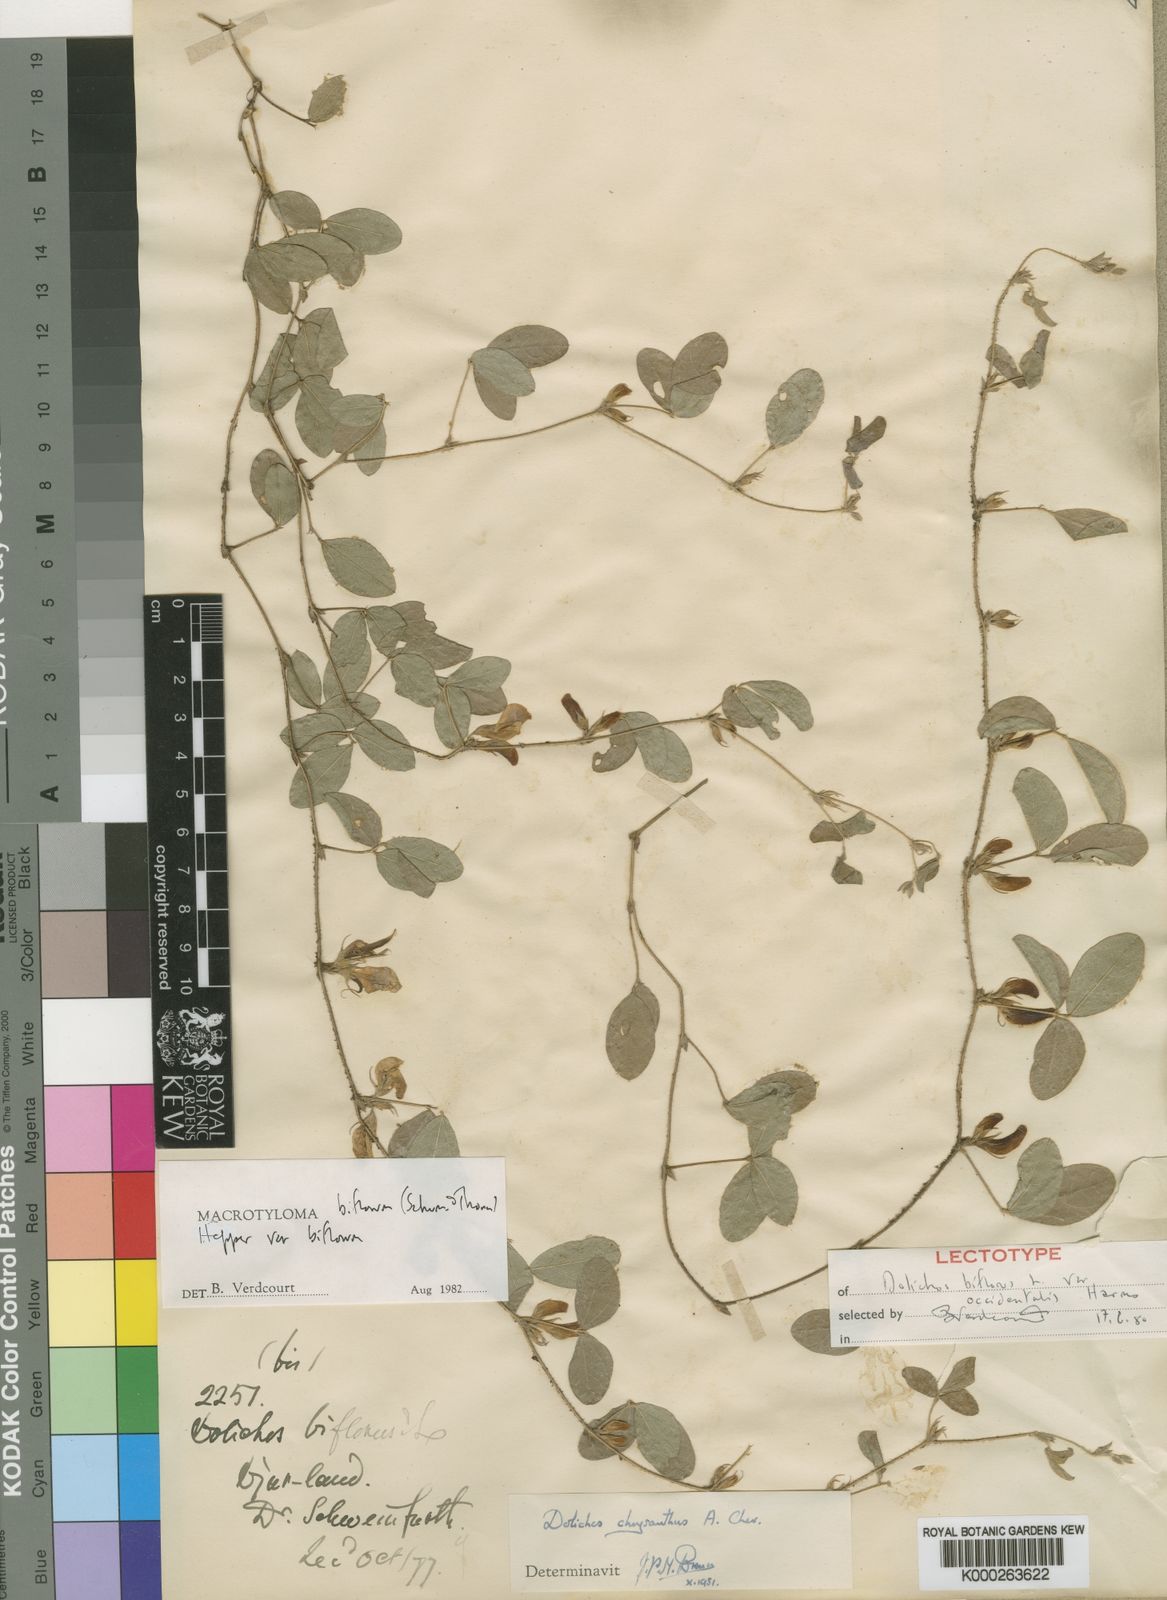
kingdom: Plantae
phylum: Tracheophyta
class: Magnoliopsida
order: Fabales
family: Fabaceae
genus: Macrotyloma
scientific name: Macrotyloma biflorum
